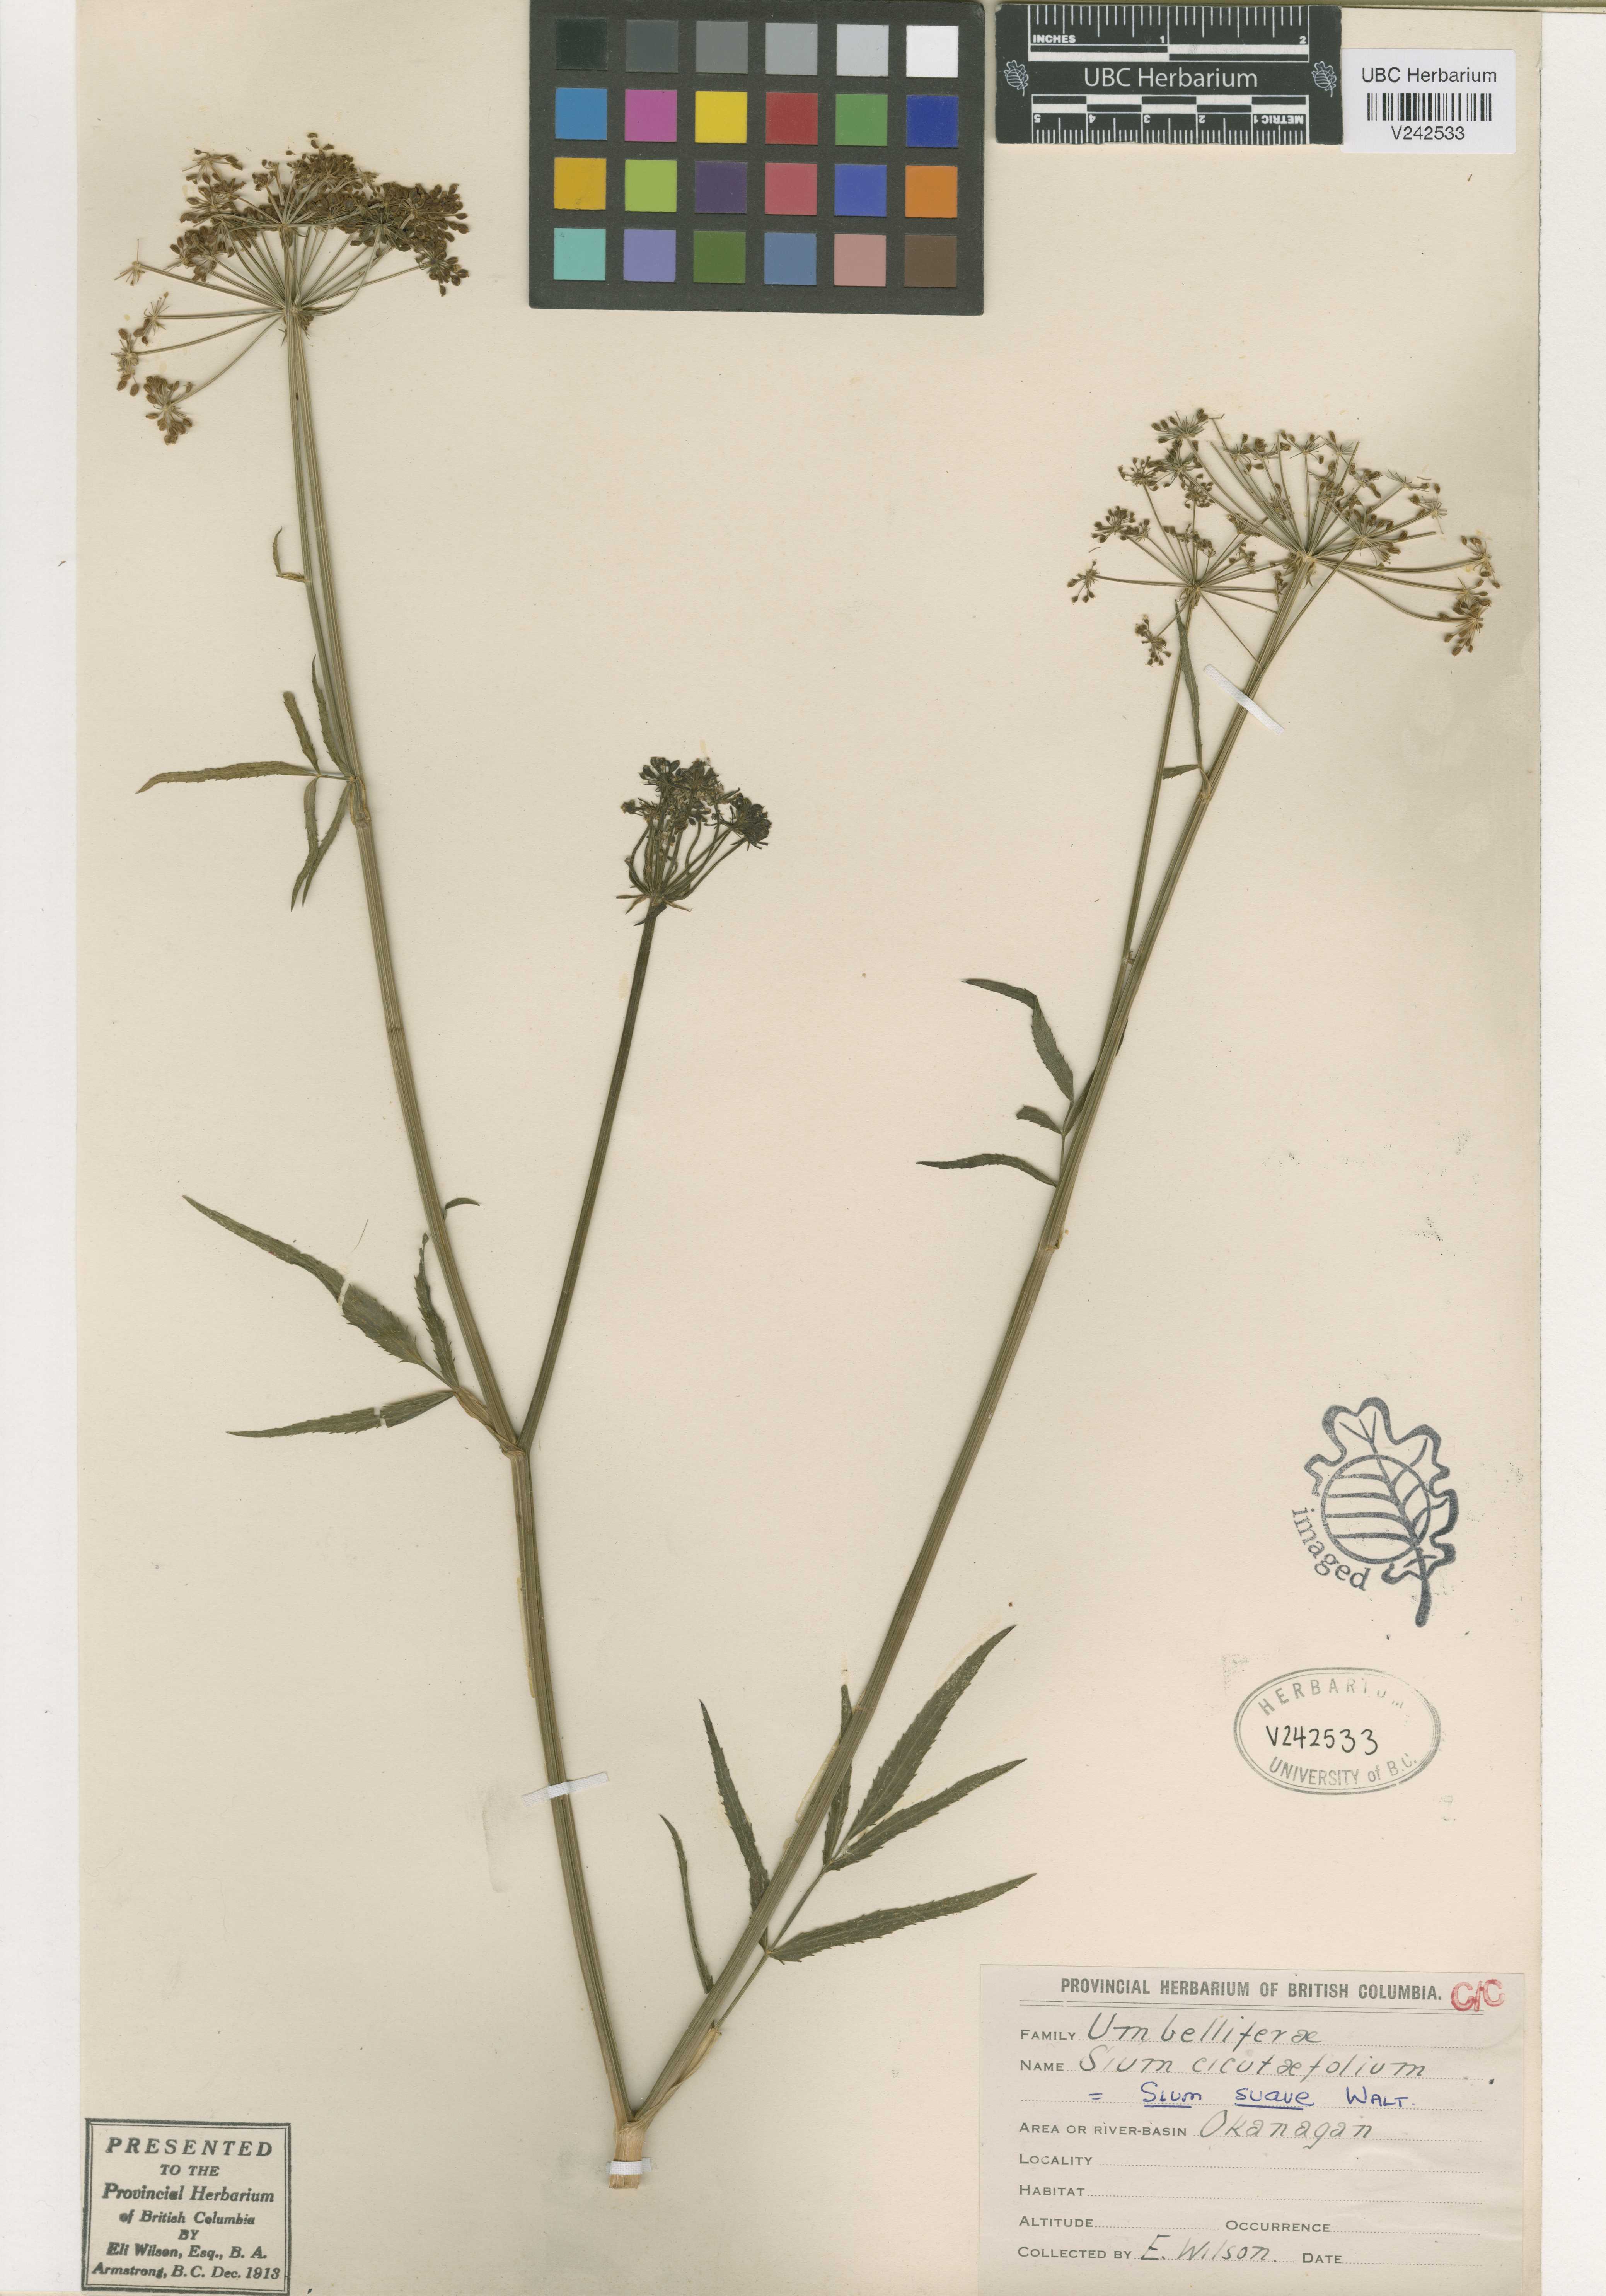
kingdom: Plantae
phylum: Tracheophyta
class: Magnoliopsida
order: Apiales
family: Apiaceae
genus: Sium
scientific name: Sium suave
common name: Hemlock water-parsnip
